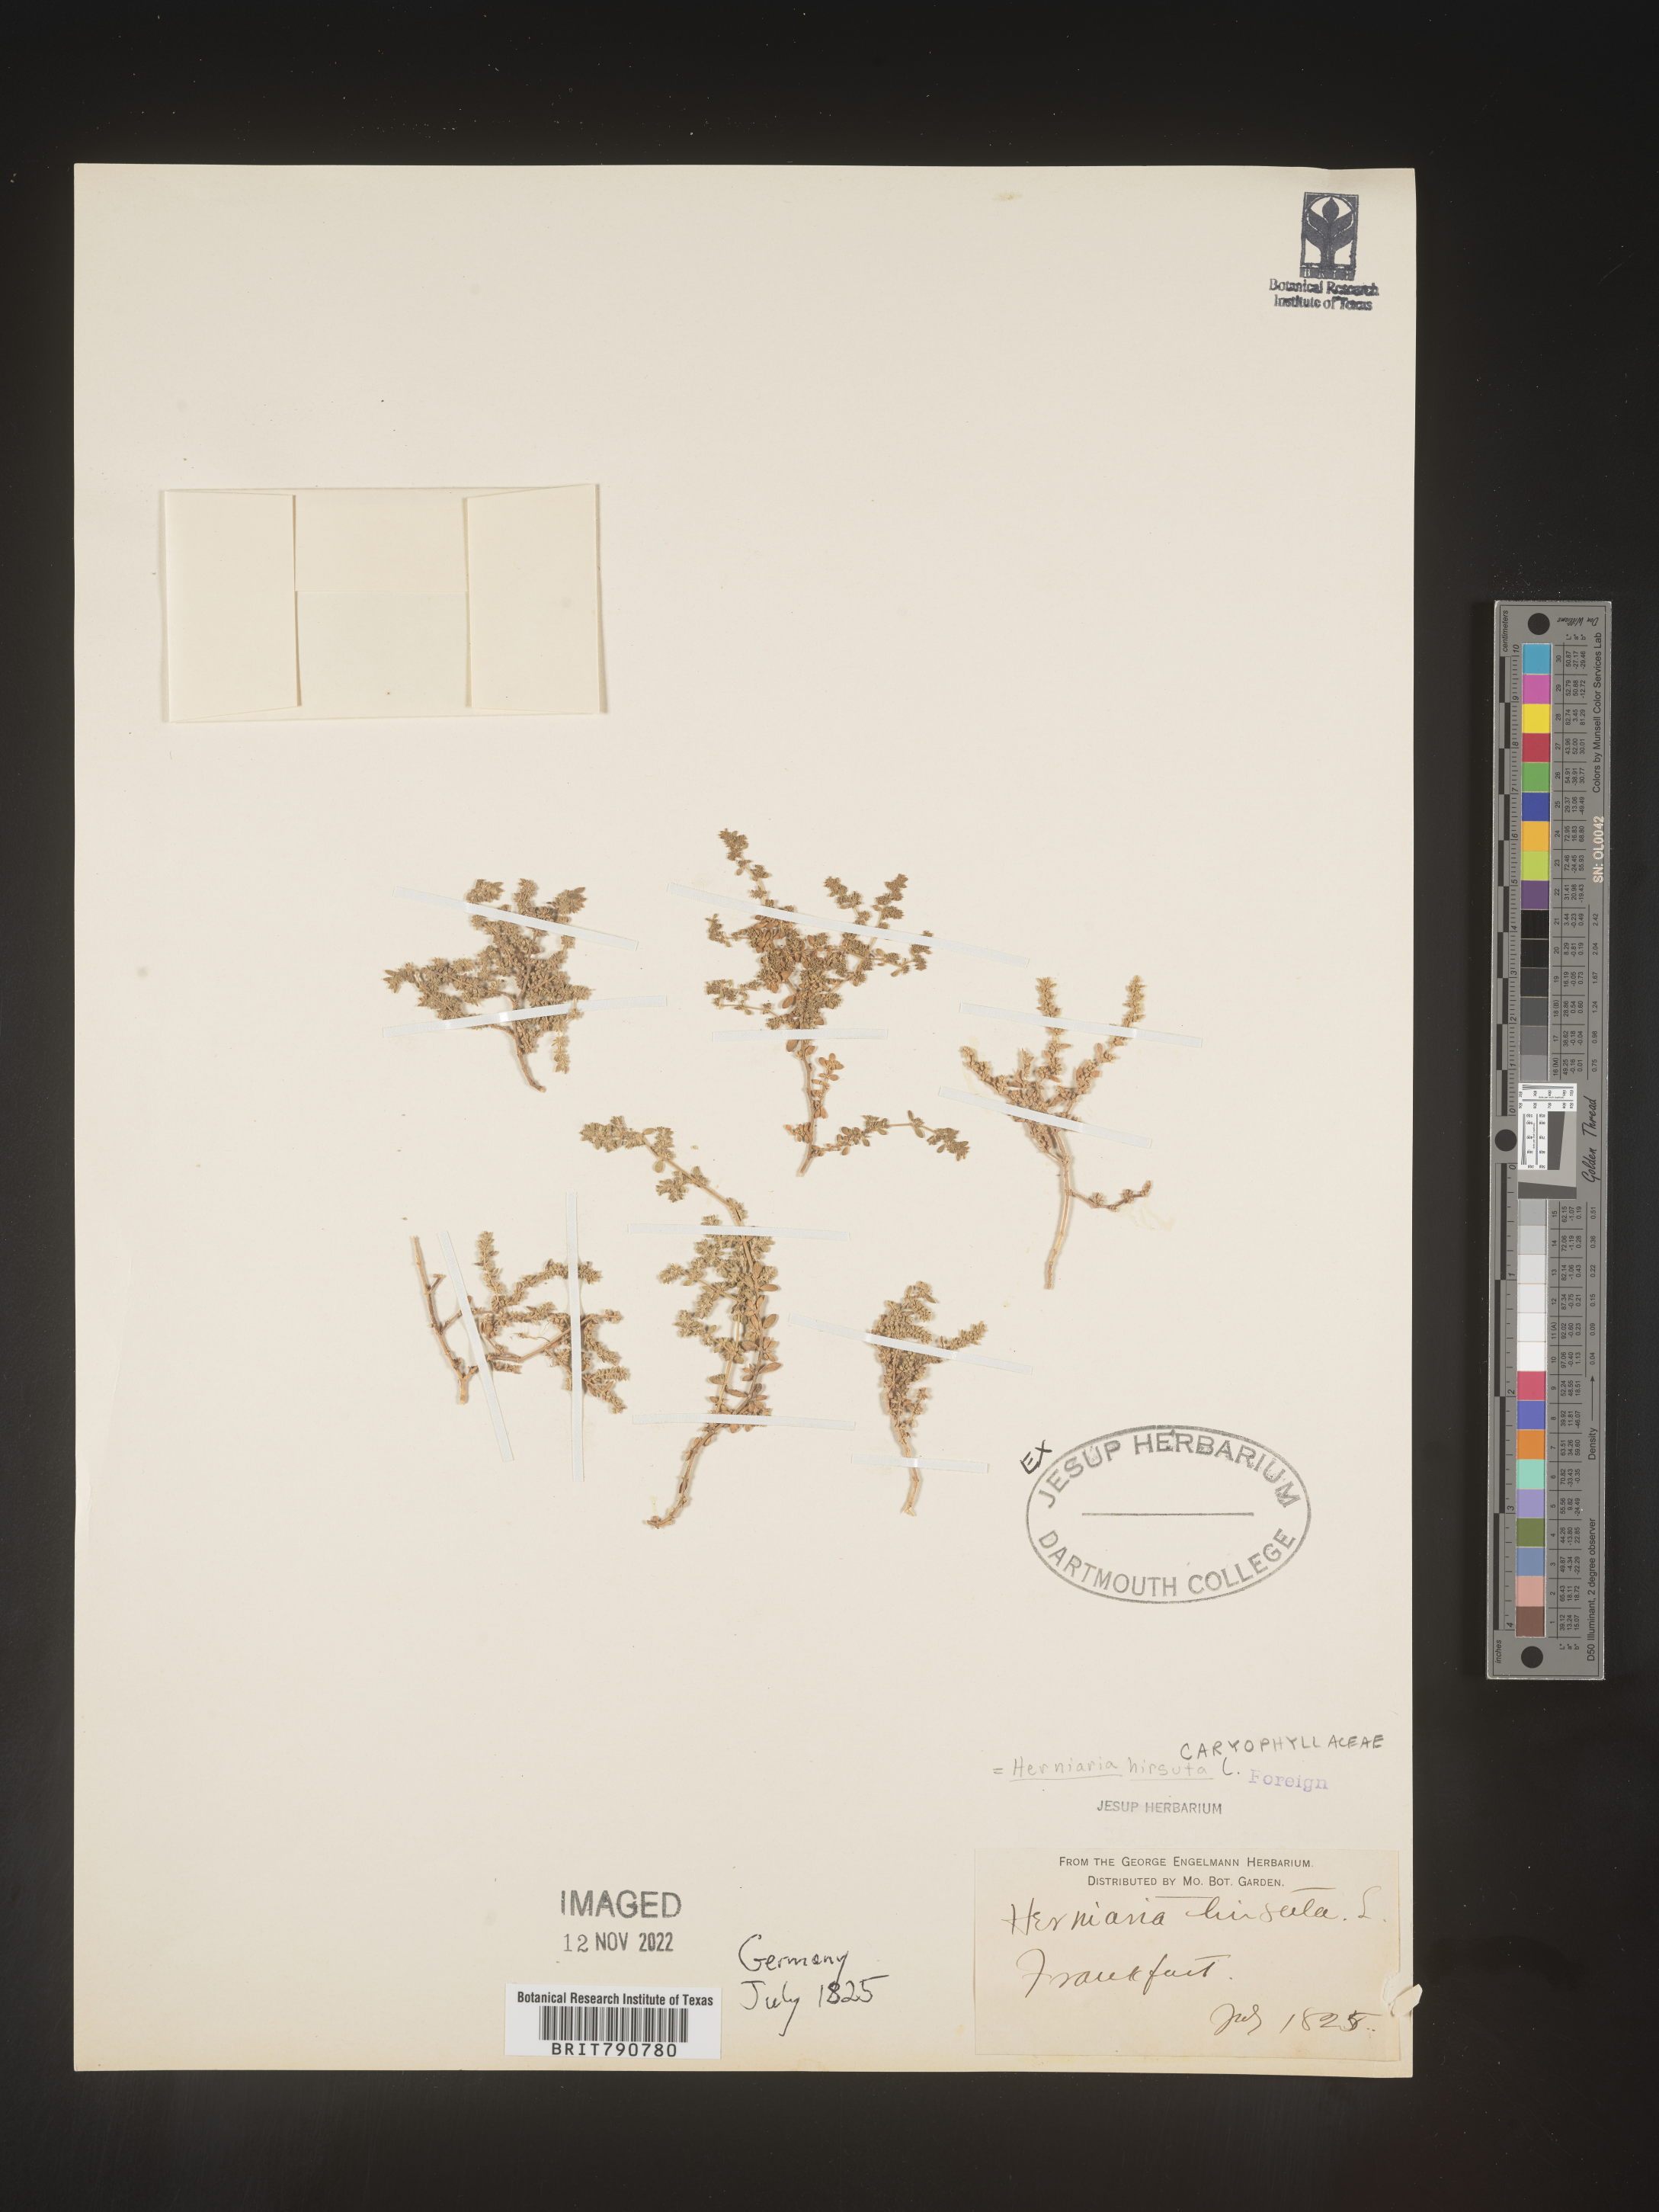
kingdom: Plantae
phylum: Tracheophyta
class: Magnoliopsida
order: Caryophyllales
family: Caryophyllaceae
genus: Herniaria
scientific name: Herniaria
